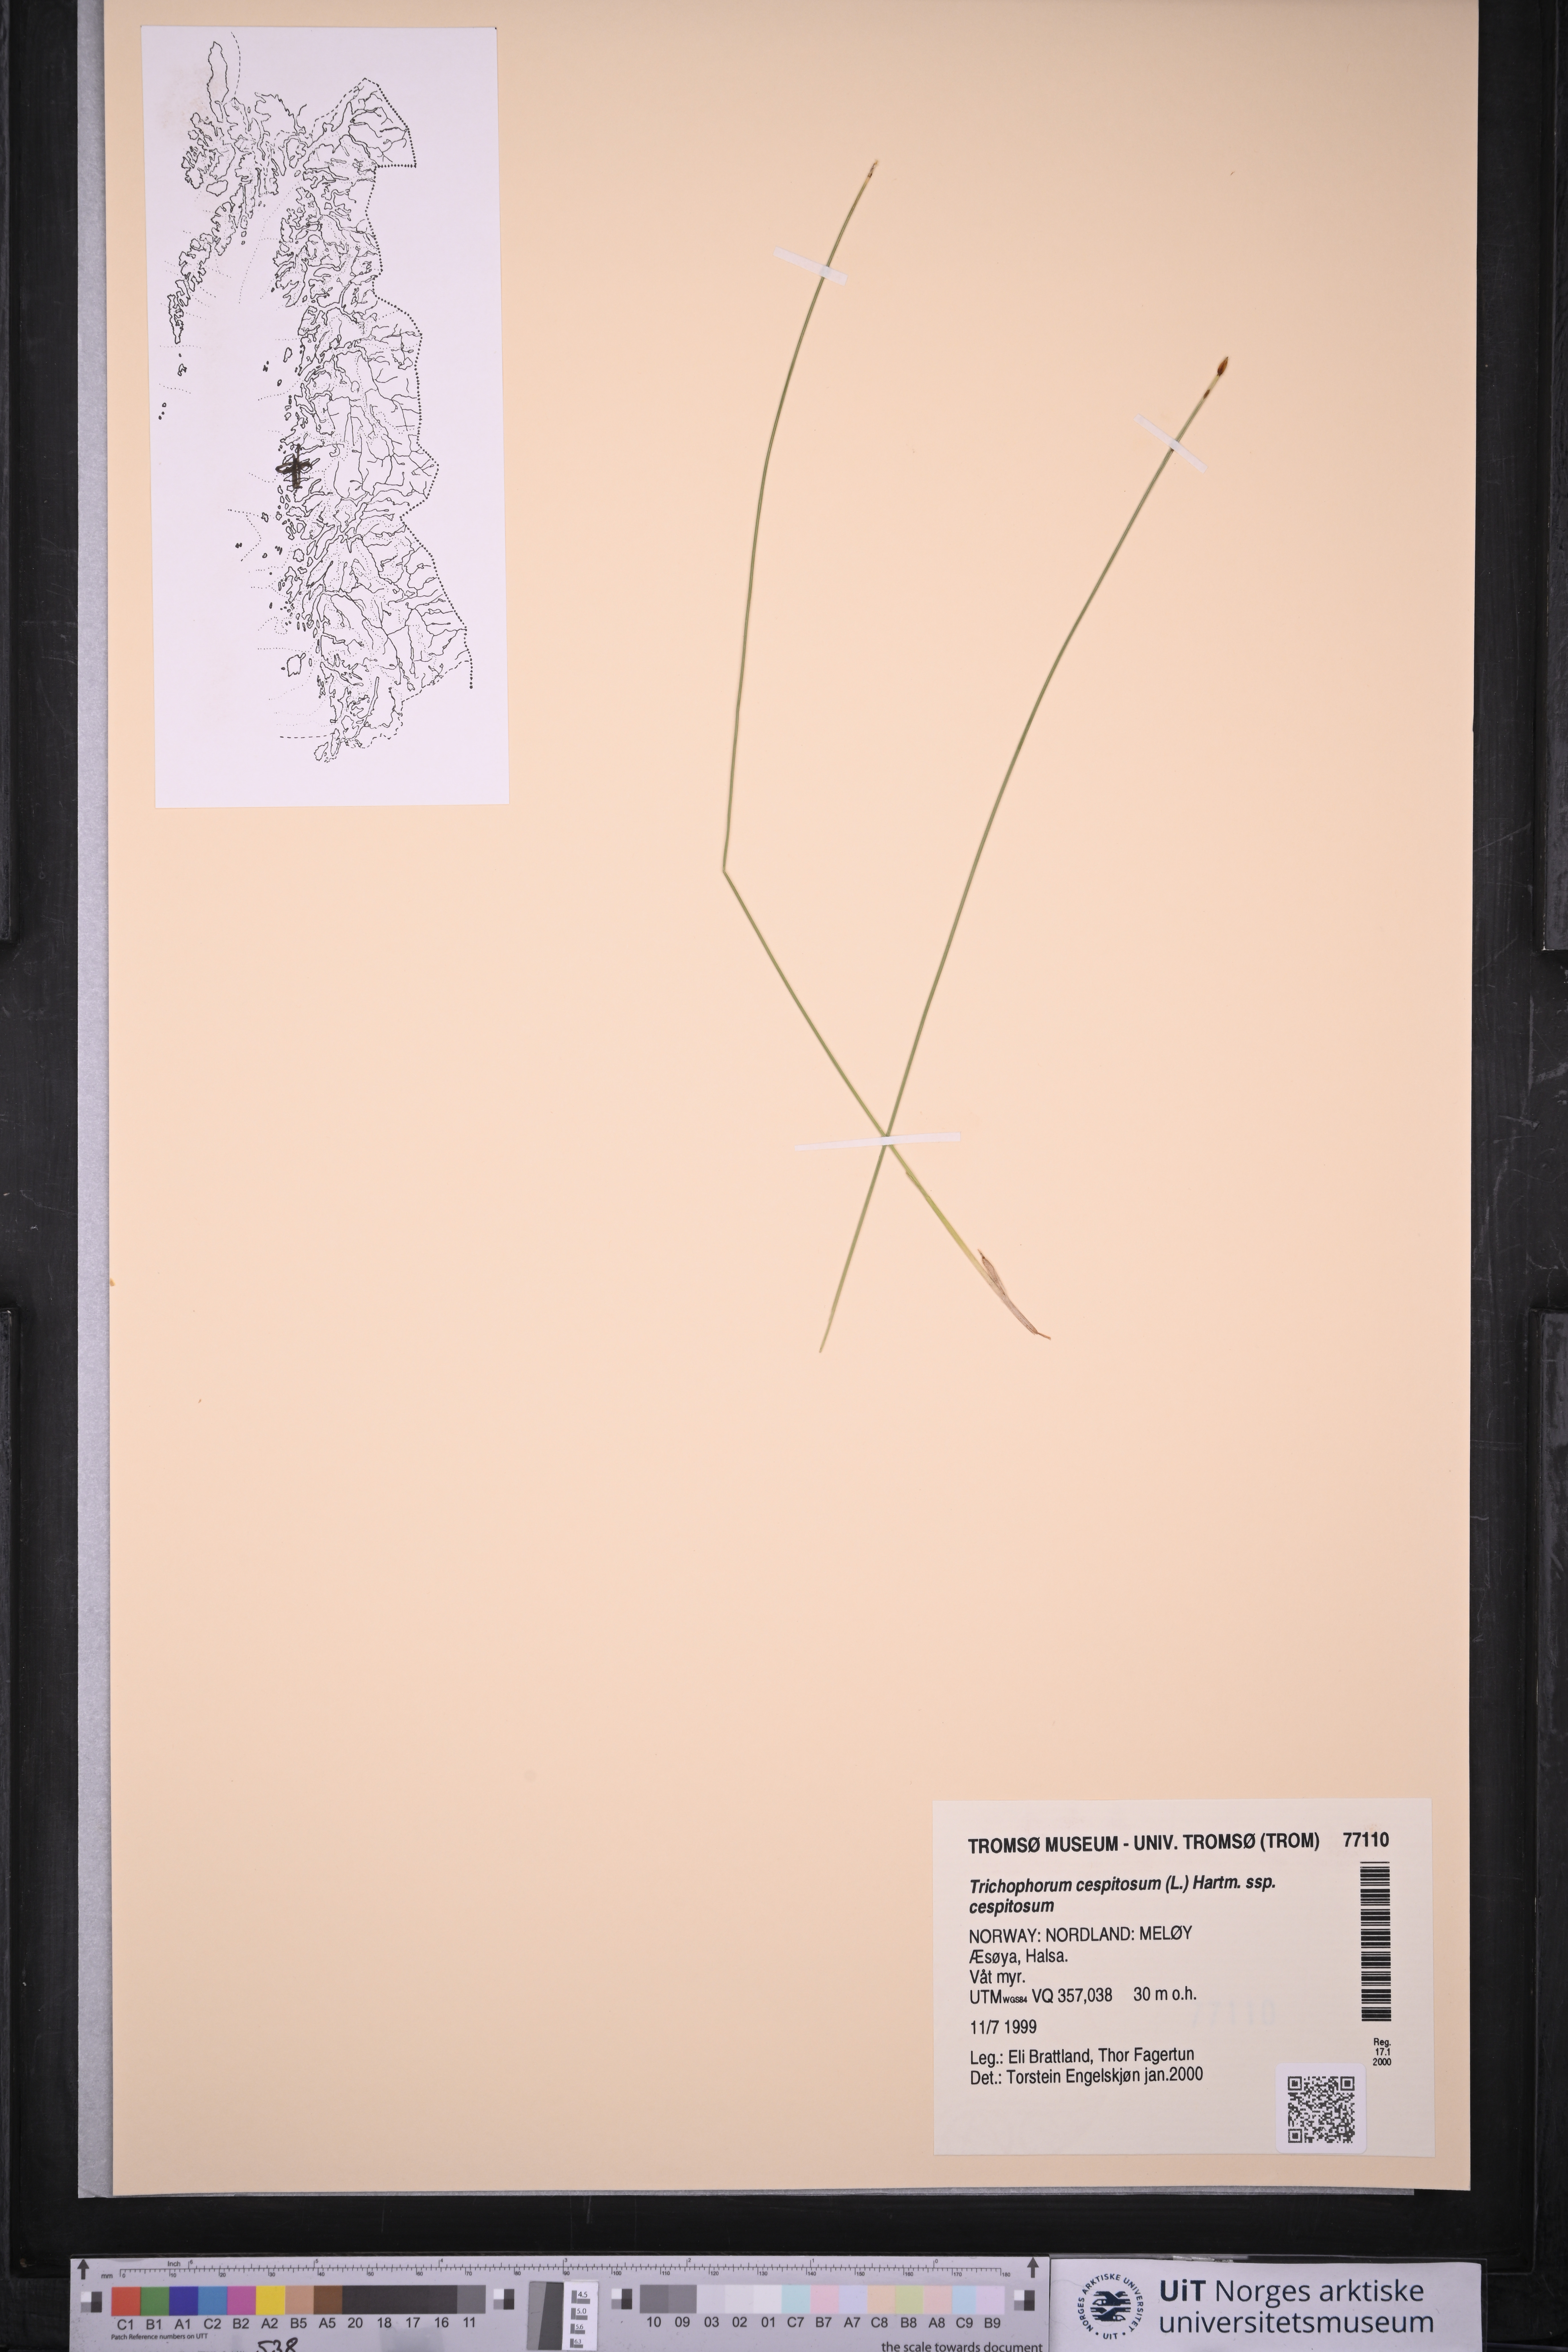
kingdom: Plantae
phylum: Tracheophyta
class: Liliopsida
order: Poales
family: Cyperaceae
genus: Trichophorum
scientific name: Trichophorum cespitosum
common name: Cespitose bulrush
